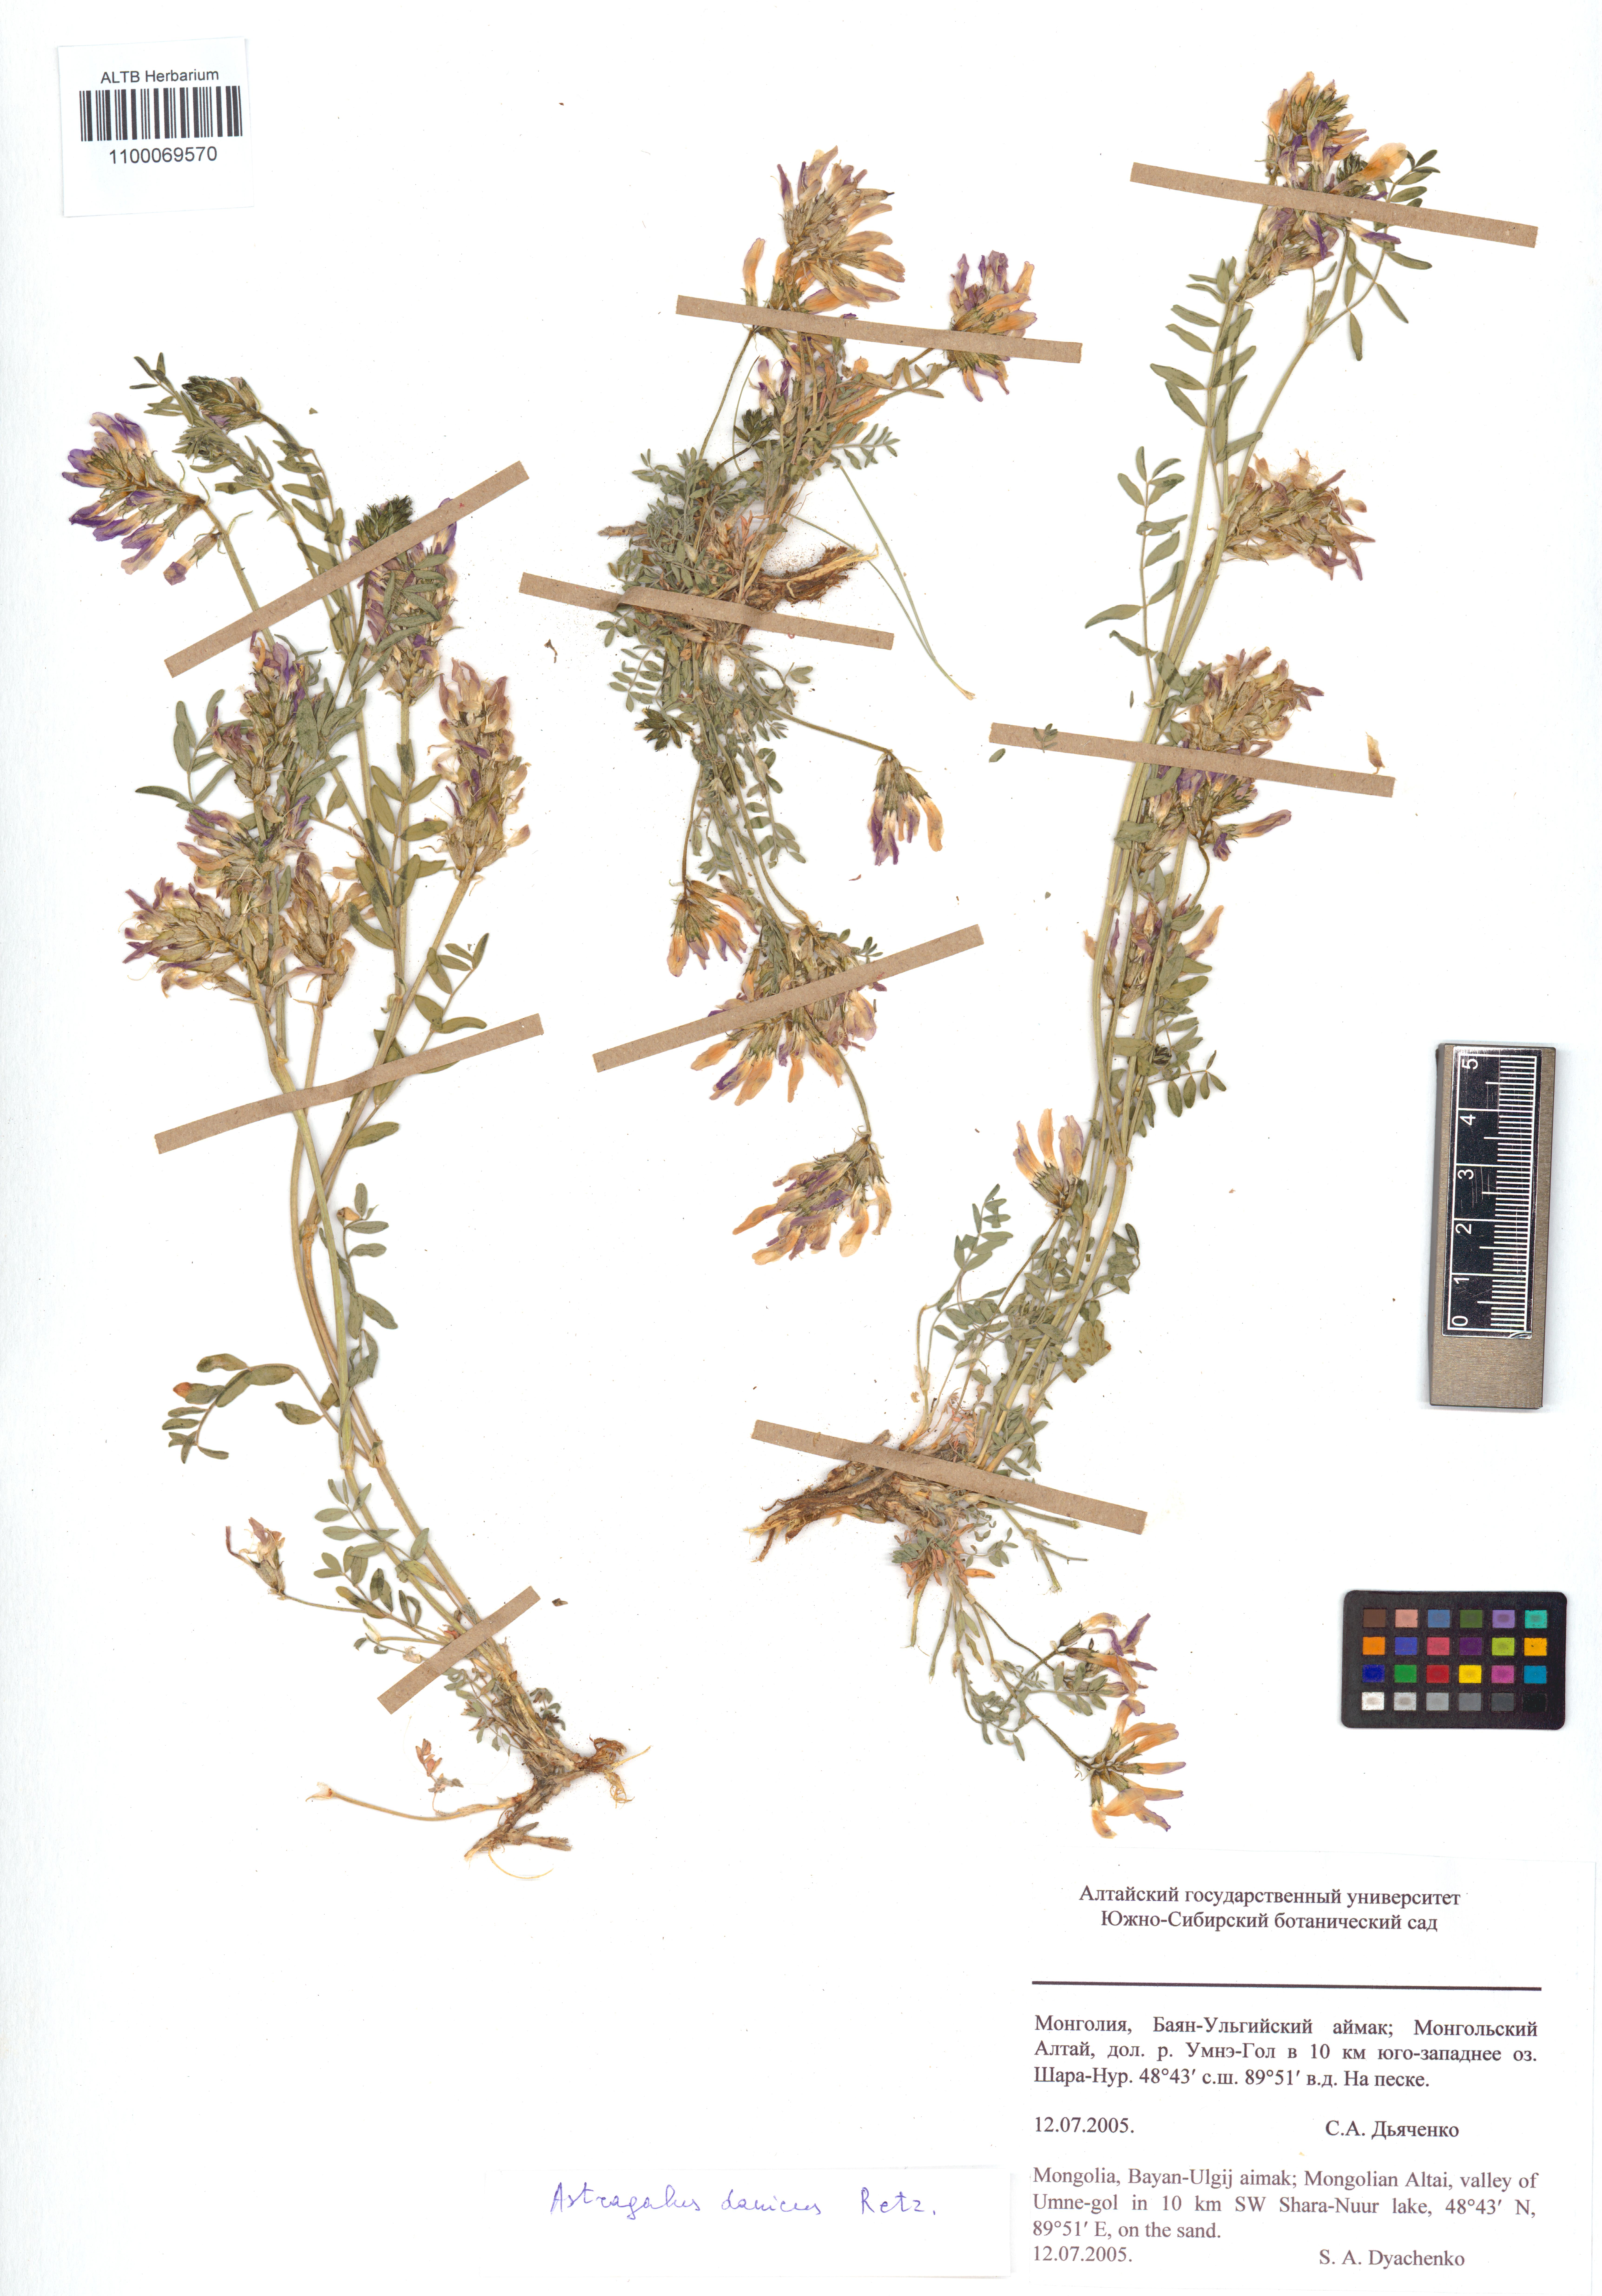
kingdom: Plantae
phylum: Tracheophyta
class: Magnoliopsida
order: Fabales
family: Fabaceae
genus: Astragalus
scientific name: Astragalus danicus
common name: Purple milk-vetch
